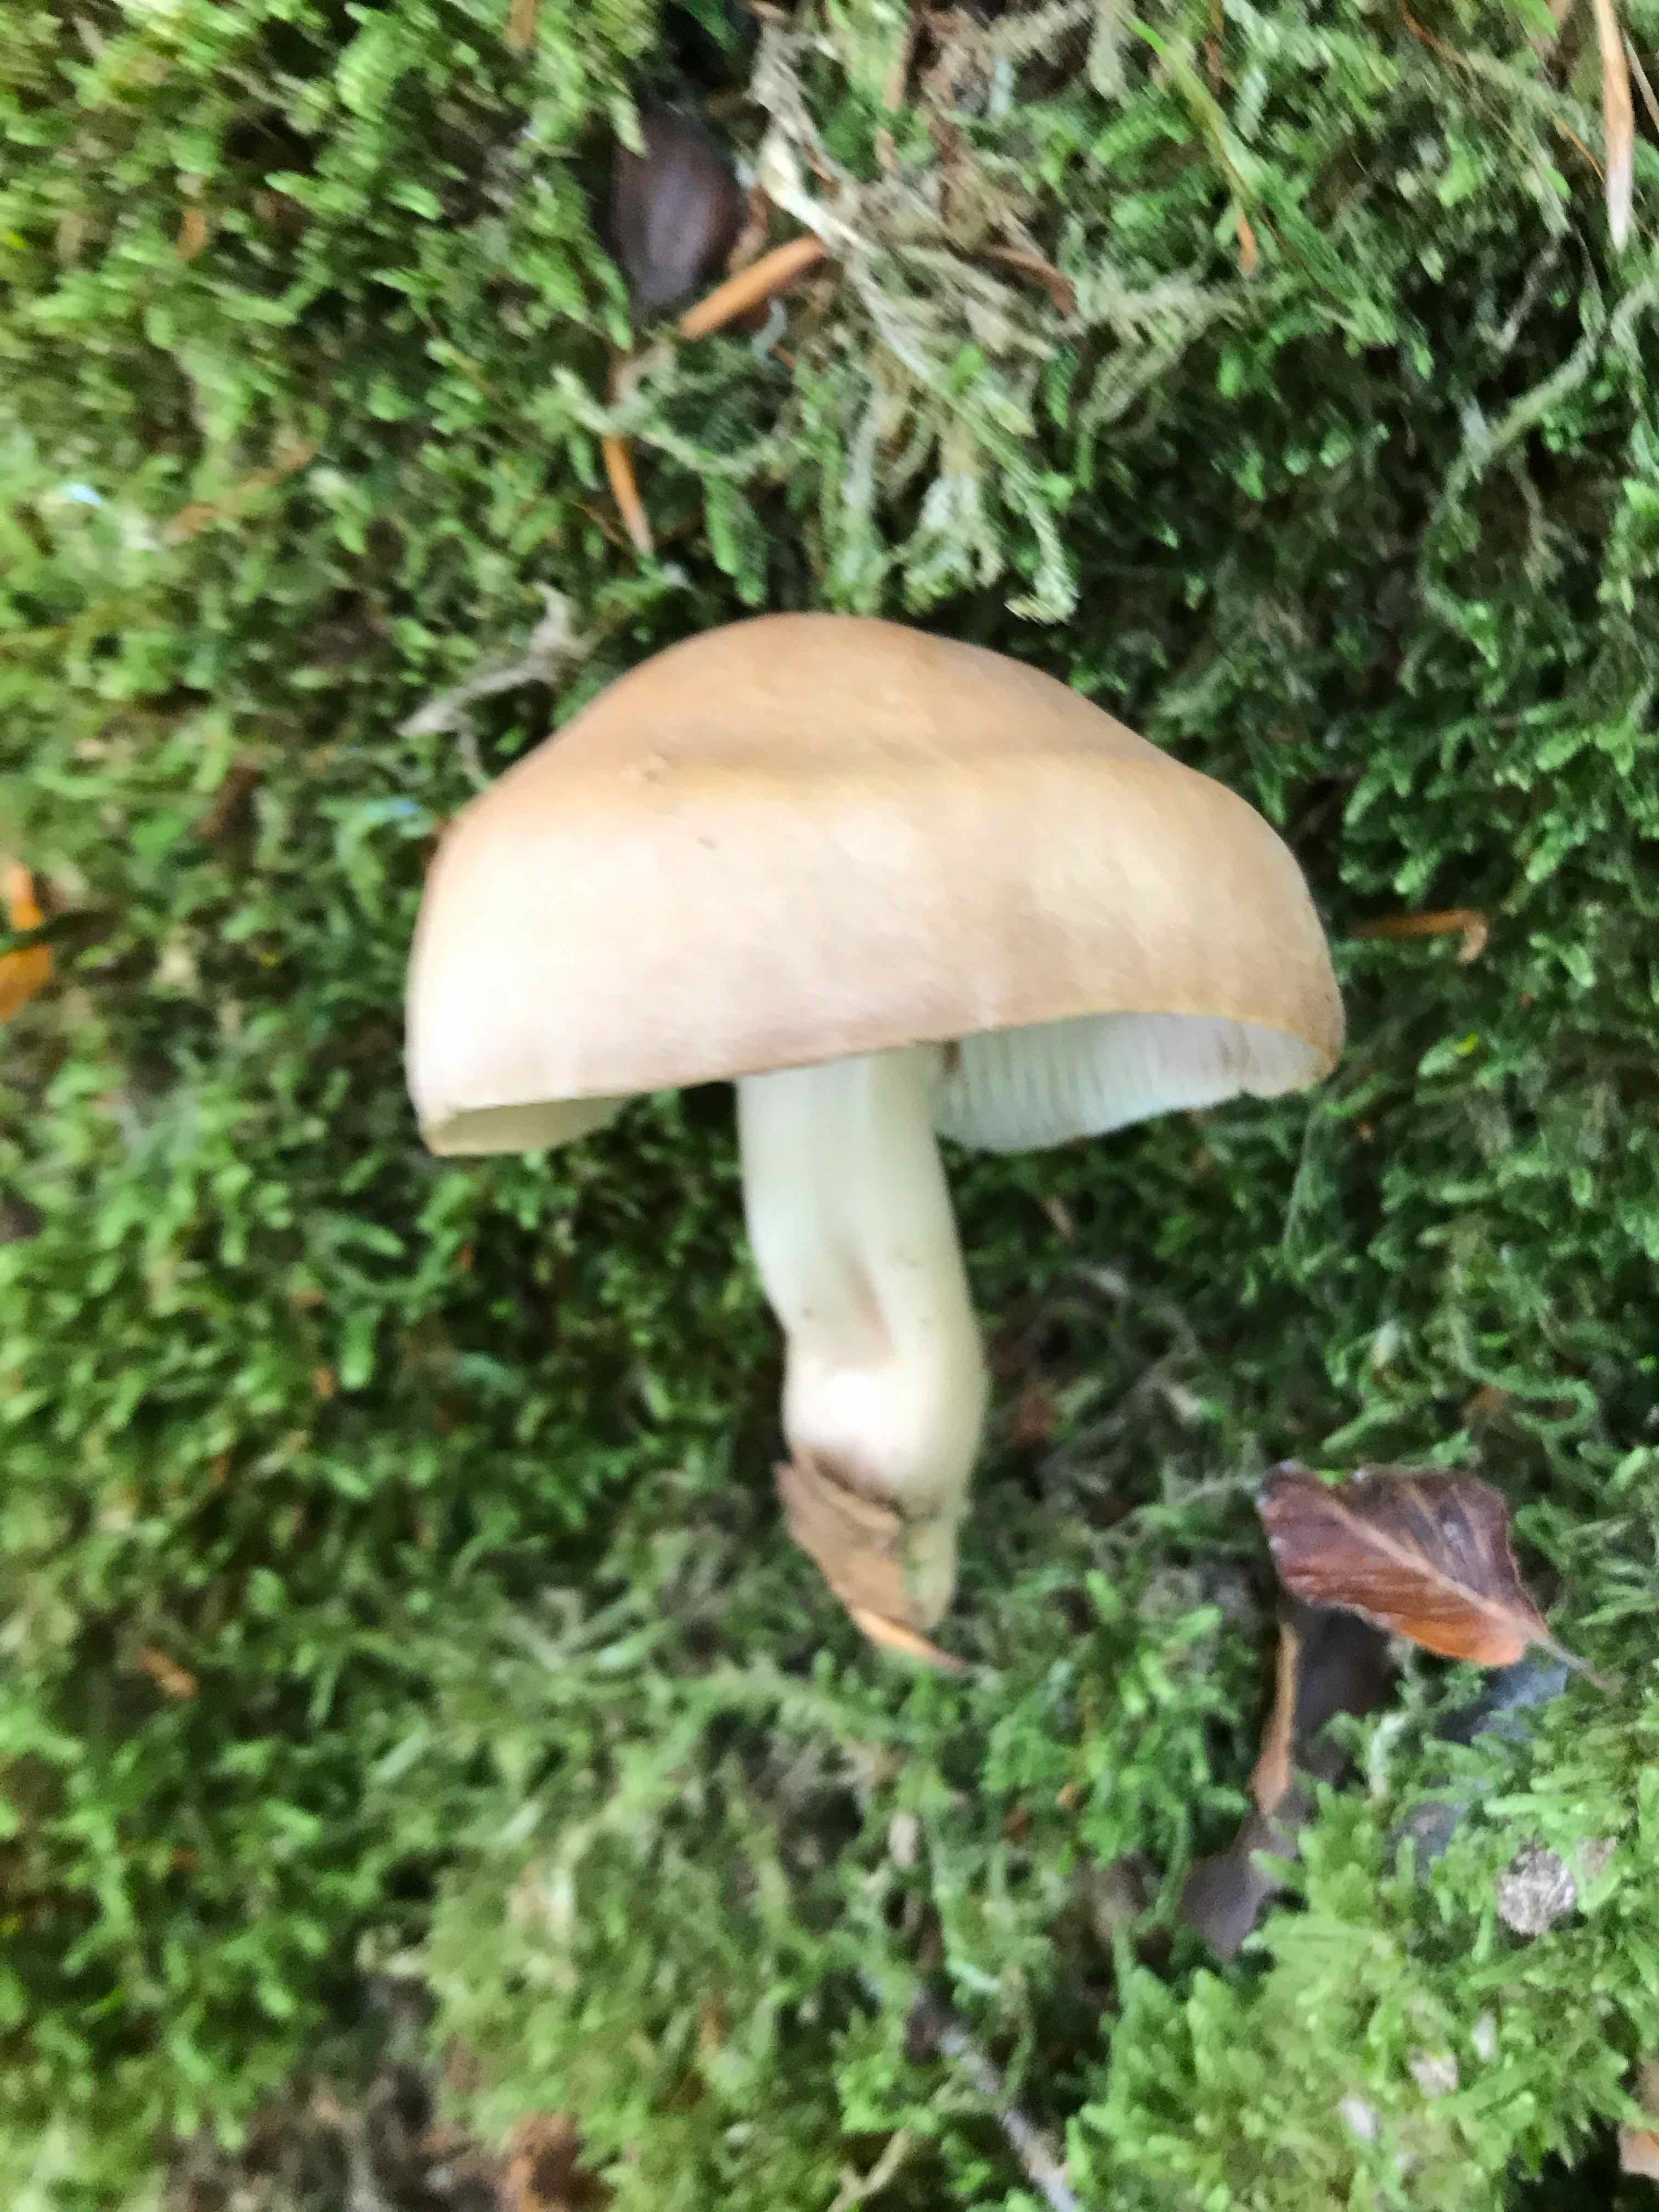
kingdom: Fungi
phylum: Basidiomycota
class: Agaricomycetes
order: Agaricales
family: Omphalotaceae
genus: Gymnopus
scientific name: Gymnopus fusipes
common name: tenstokket fladhat
